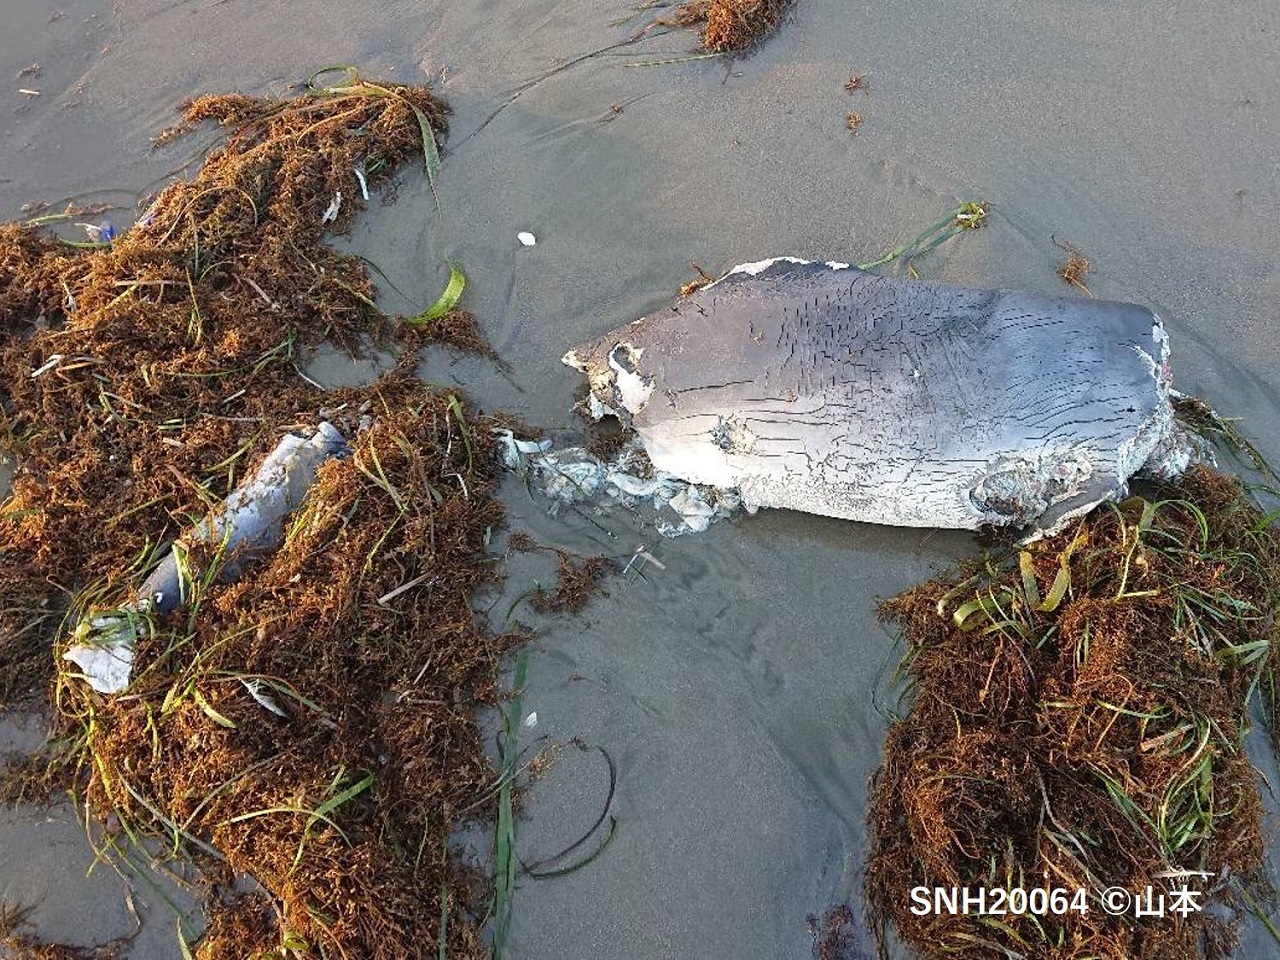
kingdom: Animalia
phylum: Chordata
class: Mammalia
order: Cetacea
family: Phocoenidae
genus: Phocoena
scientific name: Phocoena phocoena
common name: Harbour porpoise
